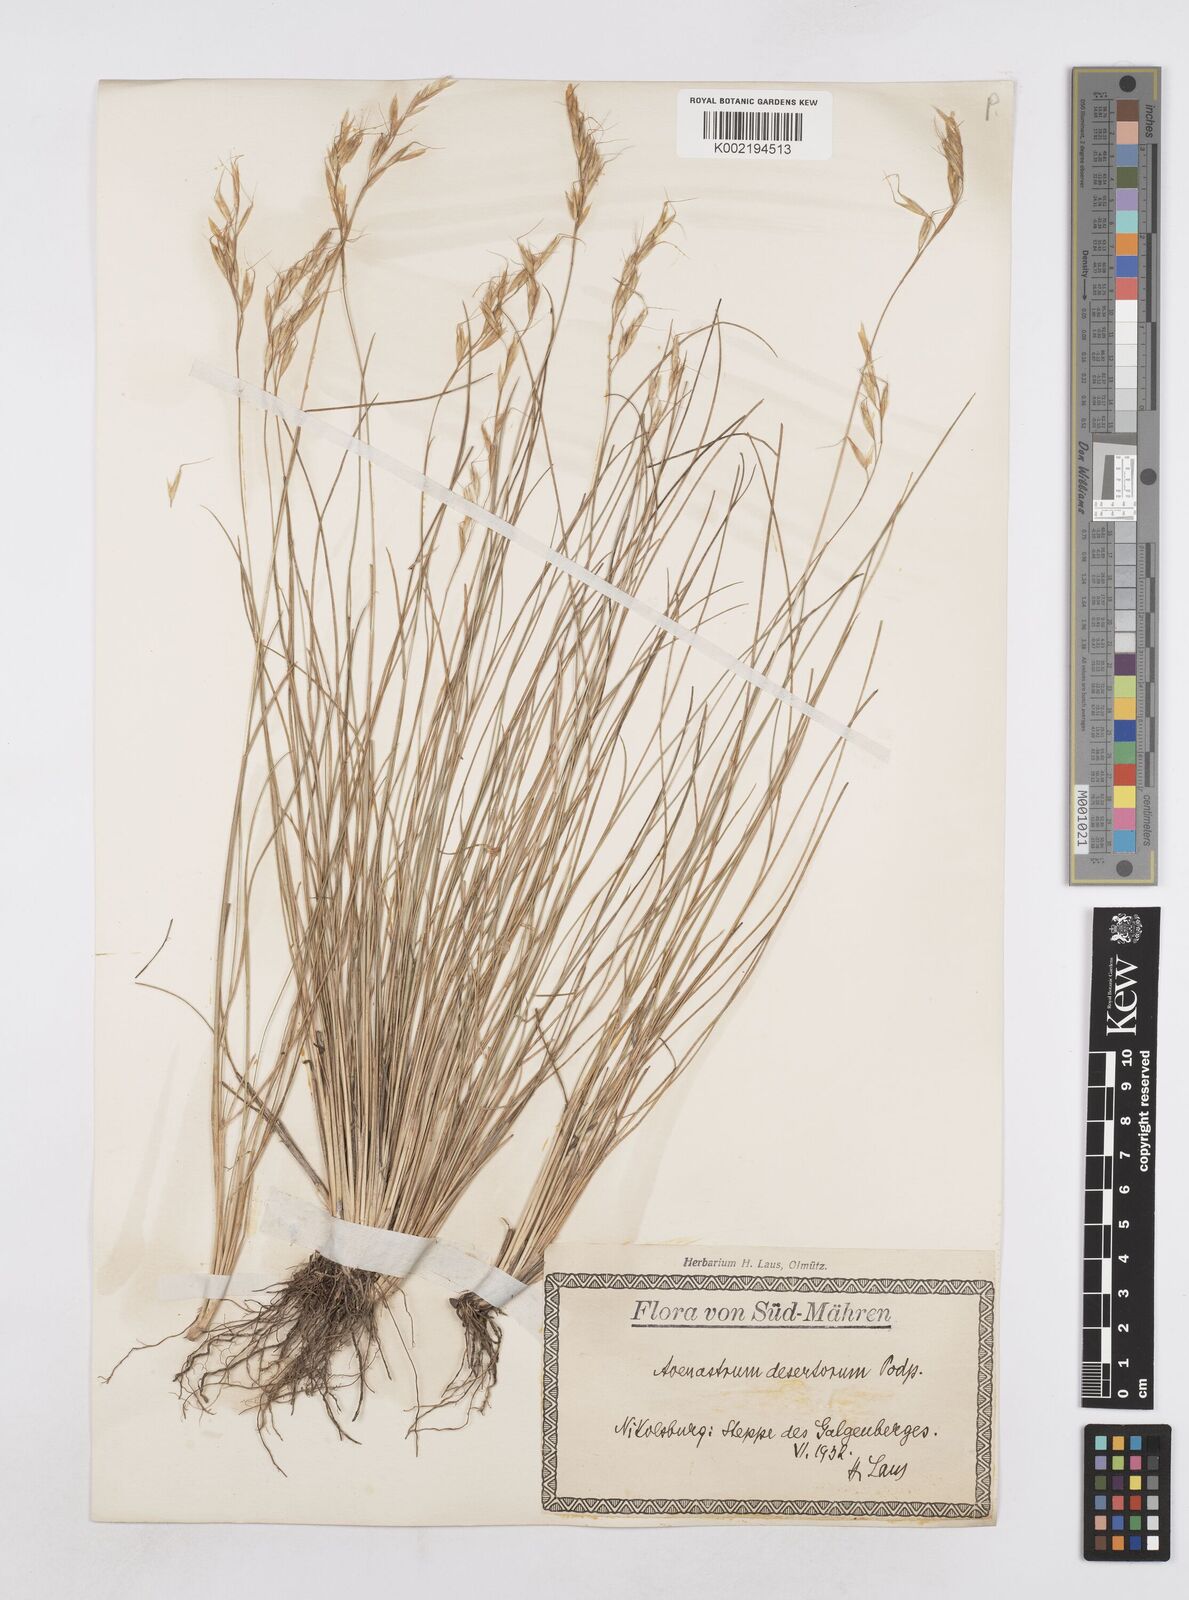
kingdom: Plantae
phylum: Tracheophyta
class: Liliopsida
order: Poales
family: Poaceae
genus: Helictotrichon
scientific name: Helictotrichon desertorum
